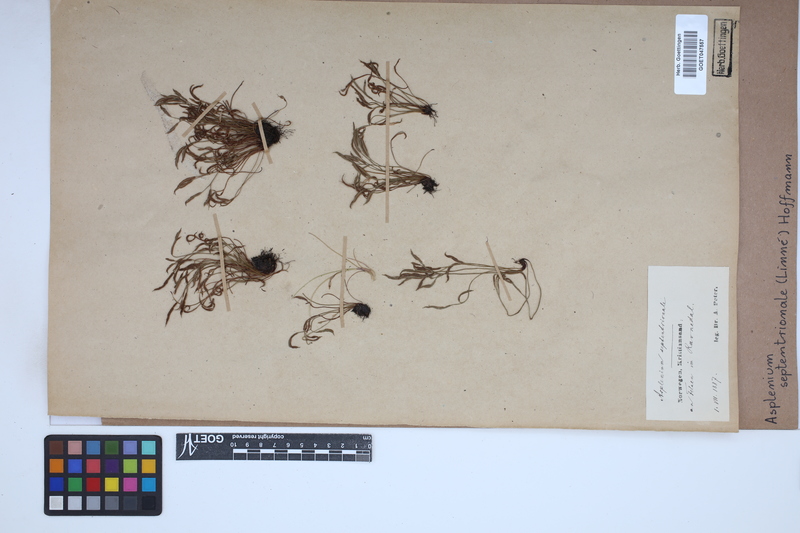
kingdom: Plantae
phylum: Tracheophyta
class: Polypodiopsida
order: Polypodiales
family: Aspleniaceae
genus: Asplenium
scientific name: Asplenium septentrionale
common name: Forked spleenwort
